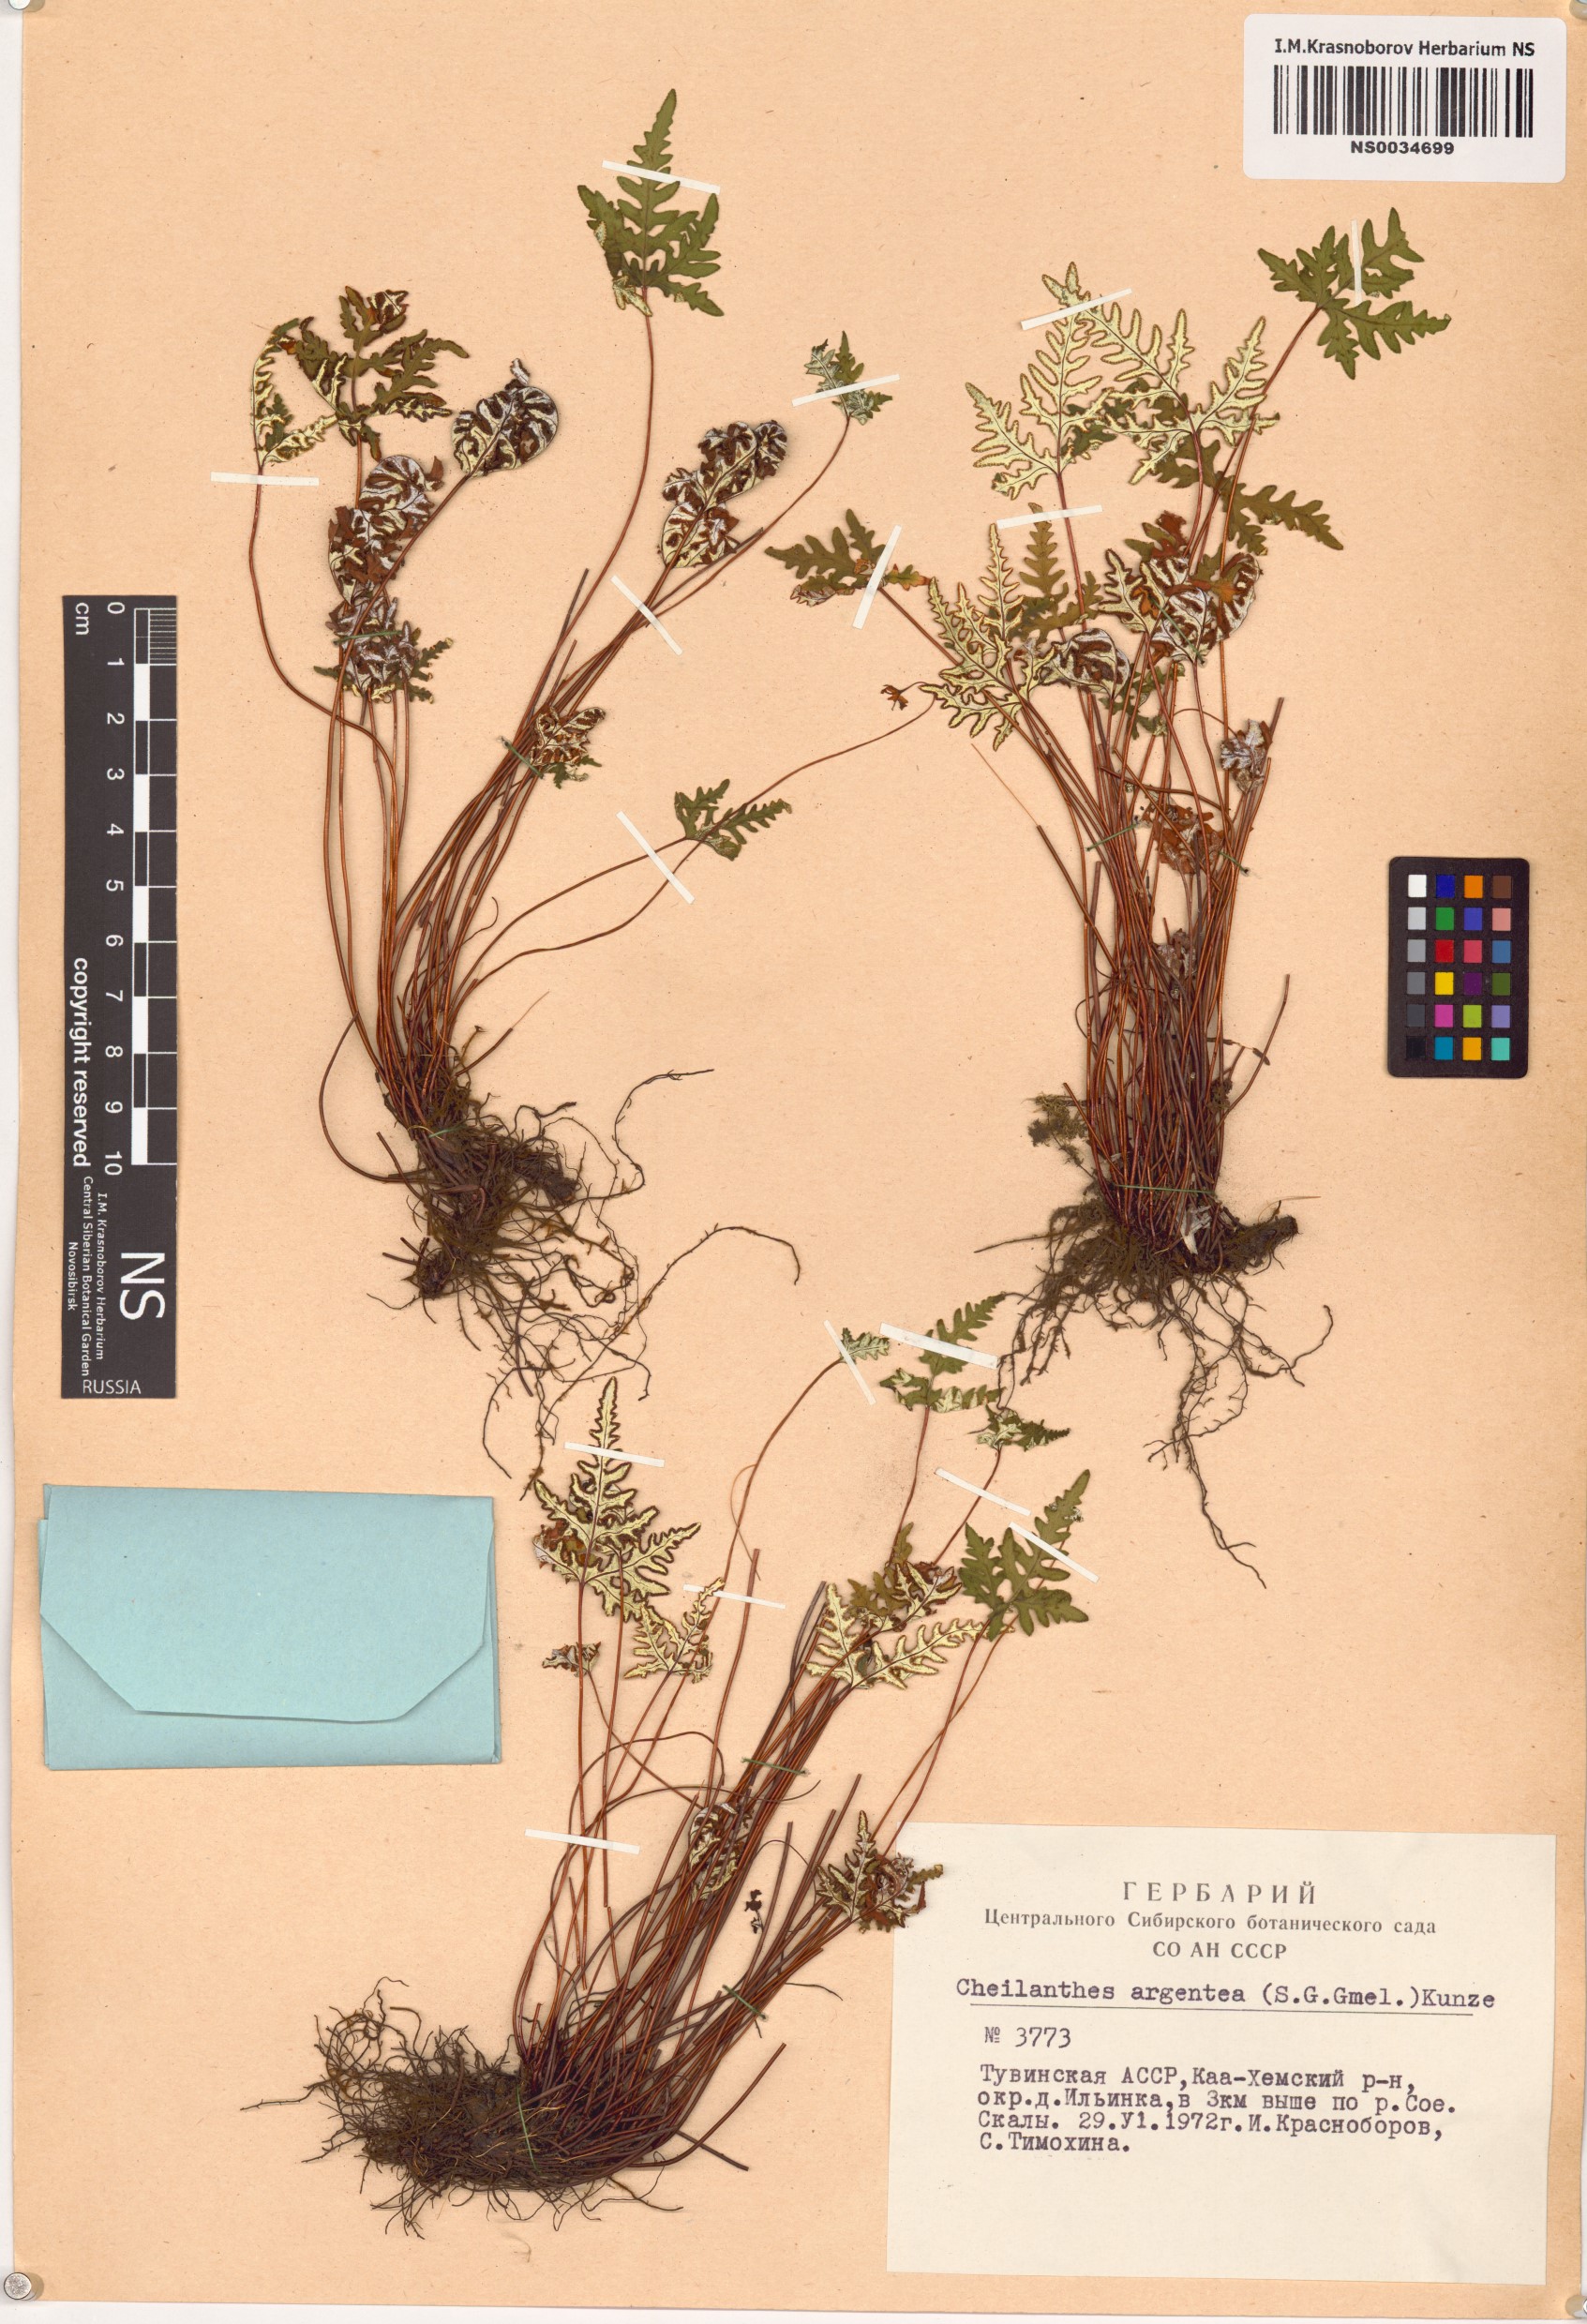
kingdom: Plantae
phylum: Tracheophyta
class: Polypodiopsida
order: Polypodiales
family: Pteridaceae
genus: Aleuritopteris
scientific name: Aleuritopteris argentea
